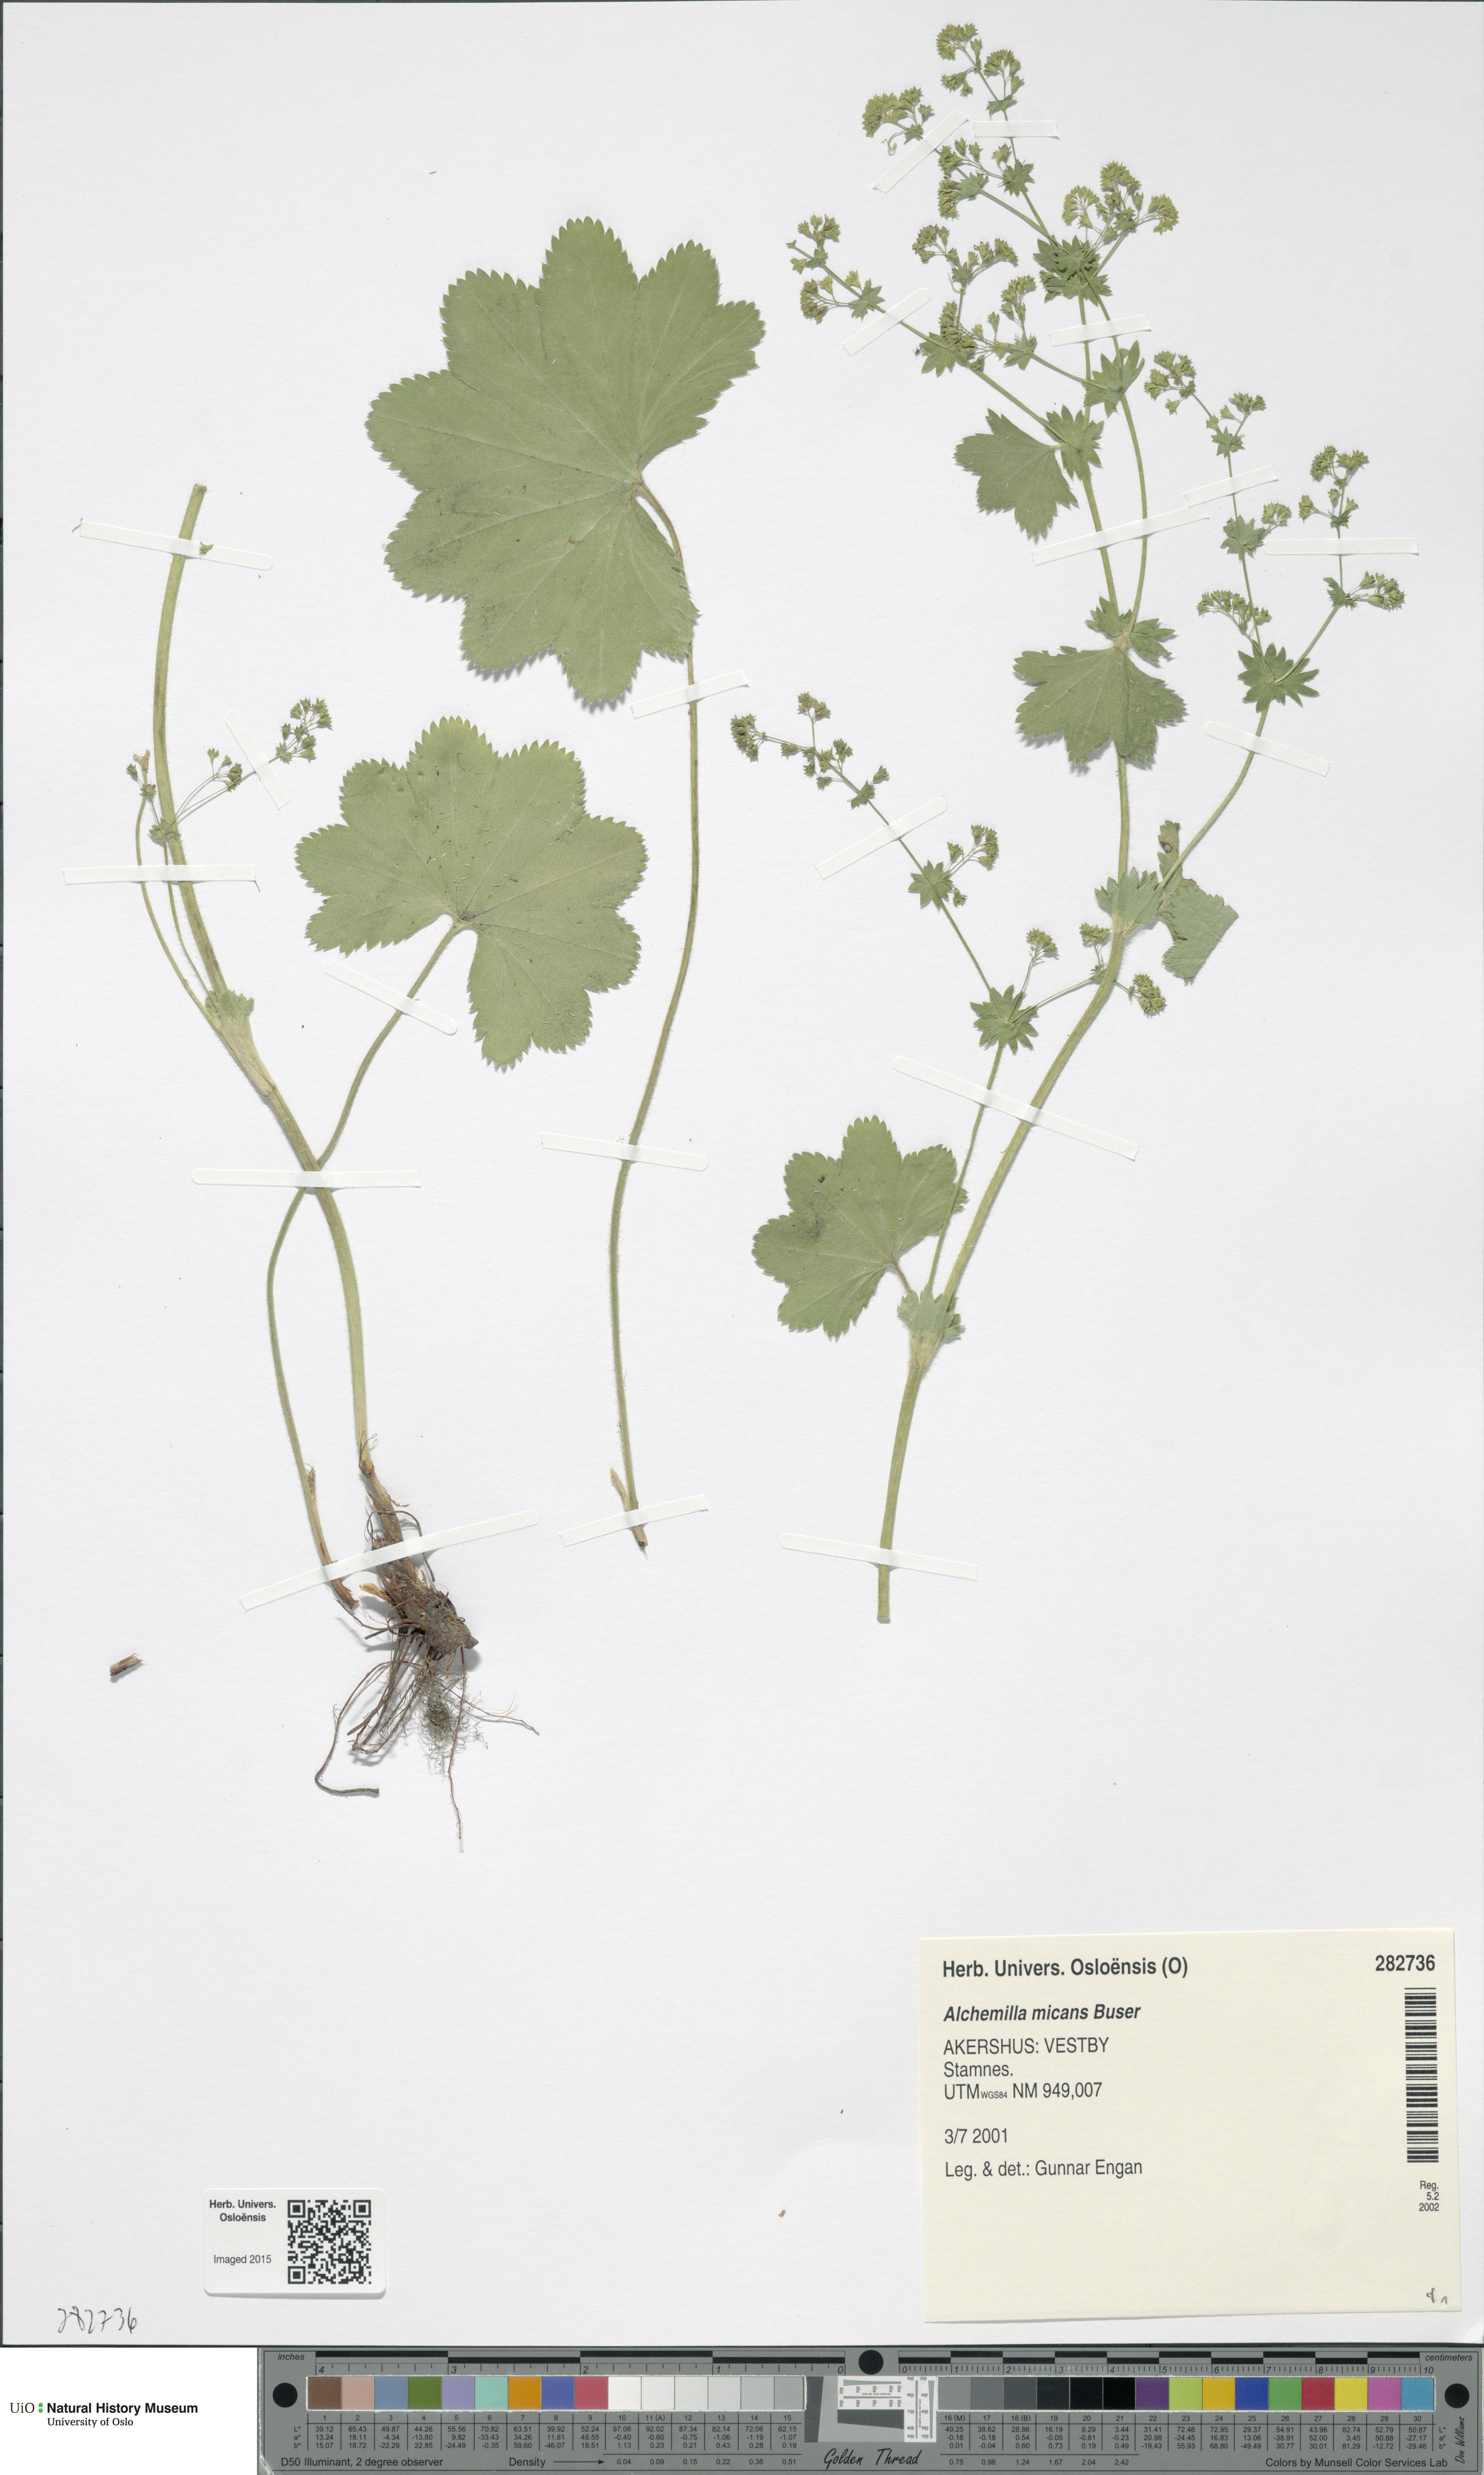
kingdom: Plantae
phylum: Tracheophyta
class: Magnoliopsida
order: Rosales
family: Rosaceae
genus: Alchemilla
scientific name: Alchemilla micans
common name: Gleaming lady's mantle
